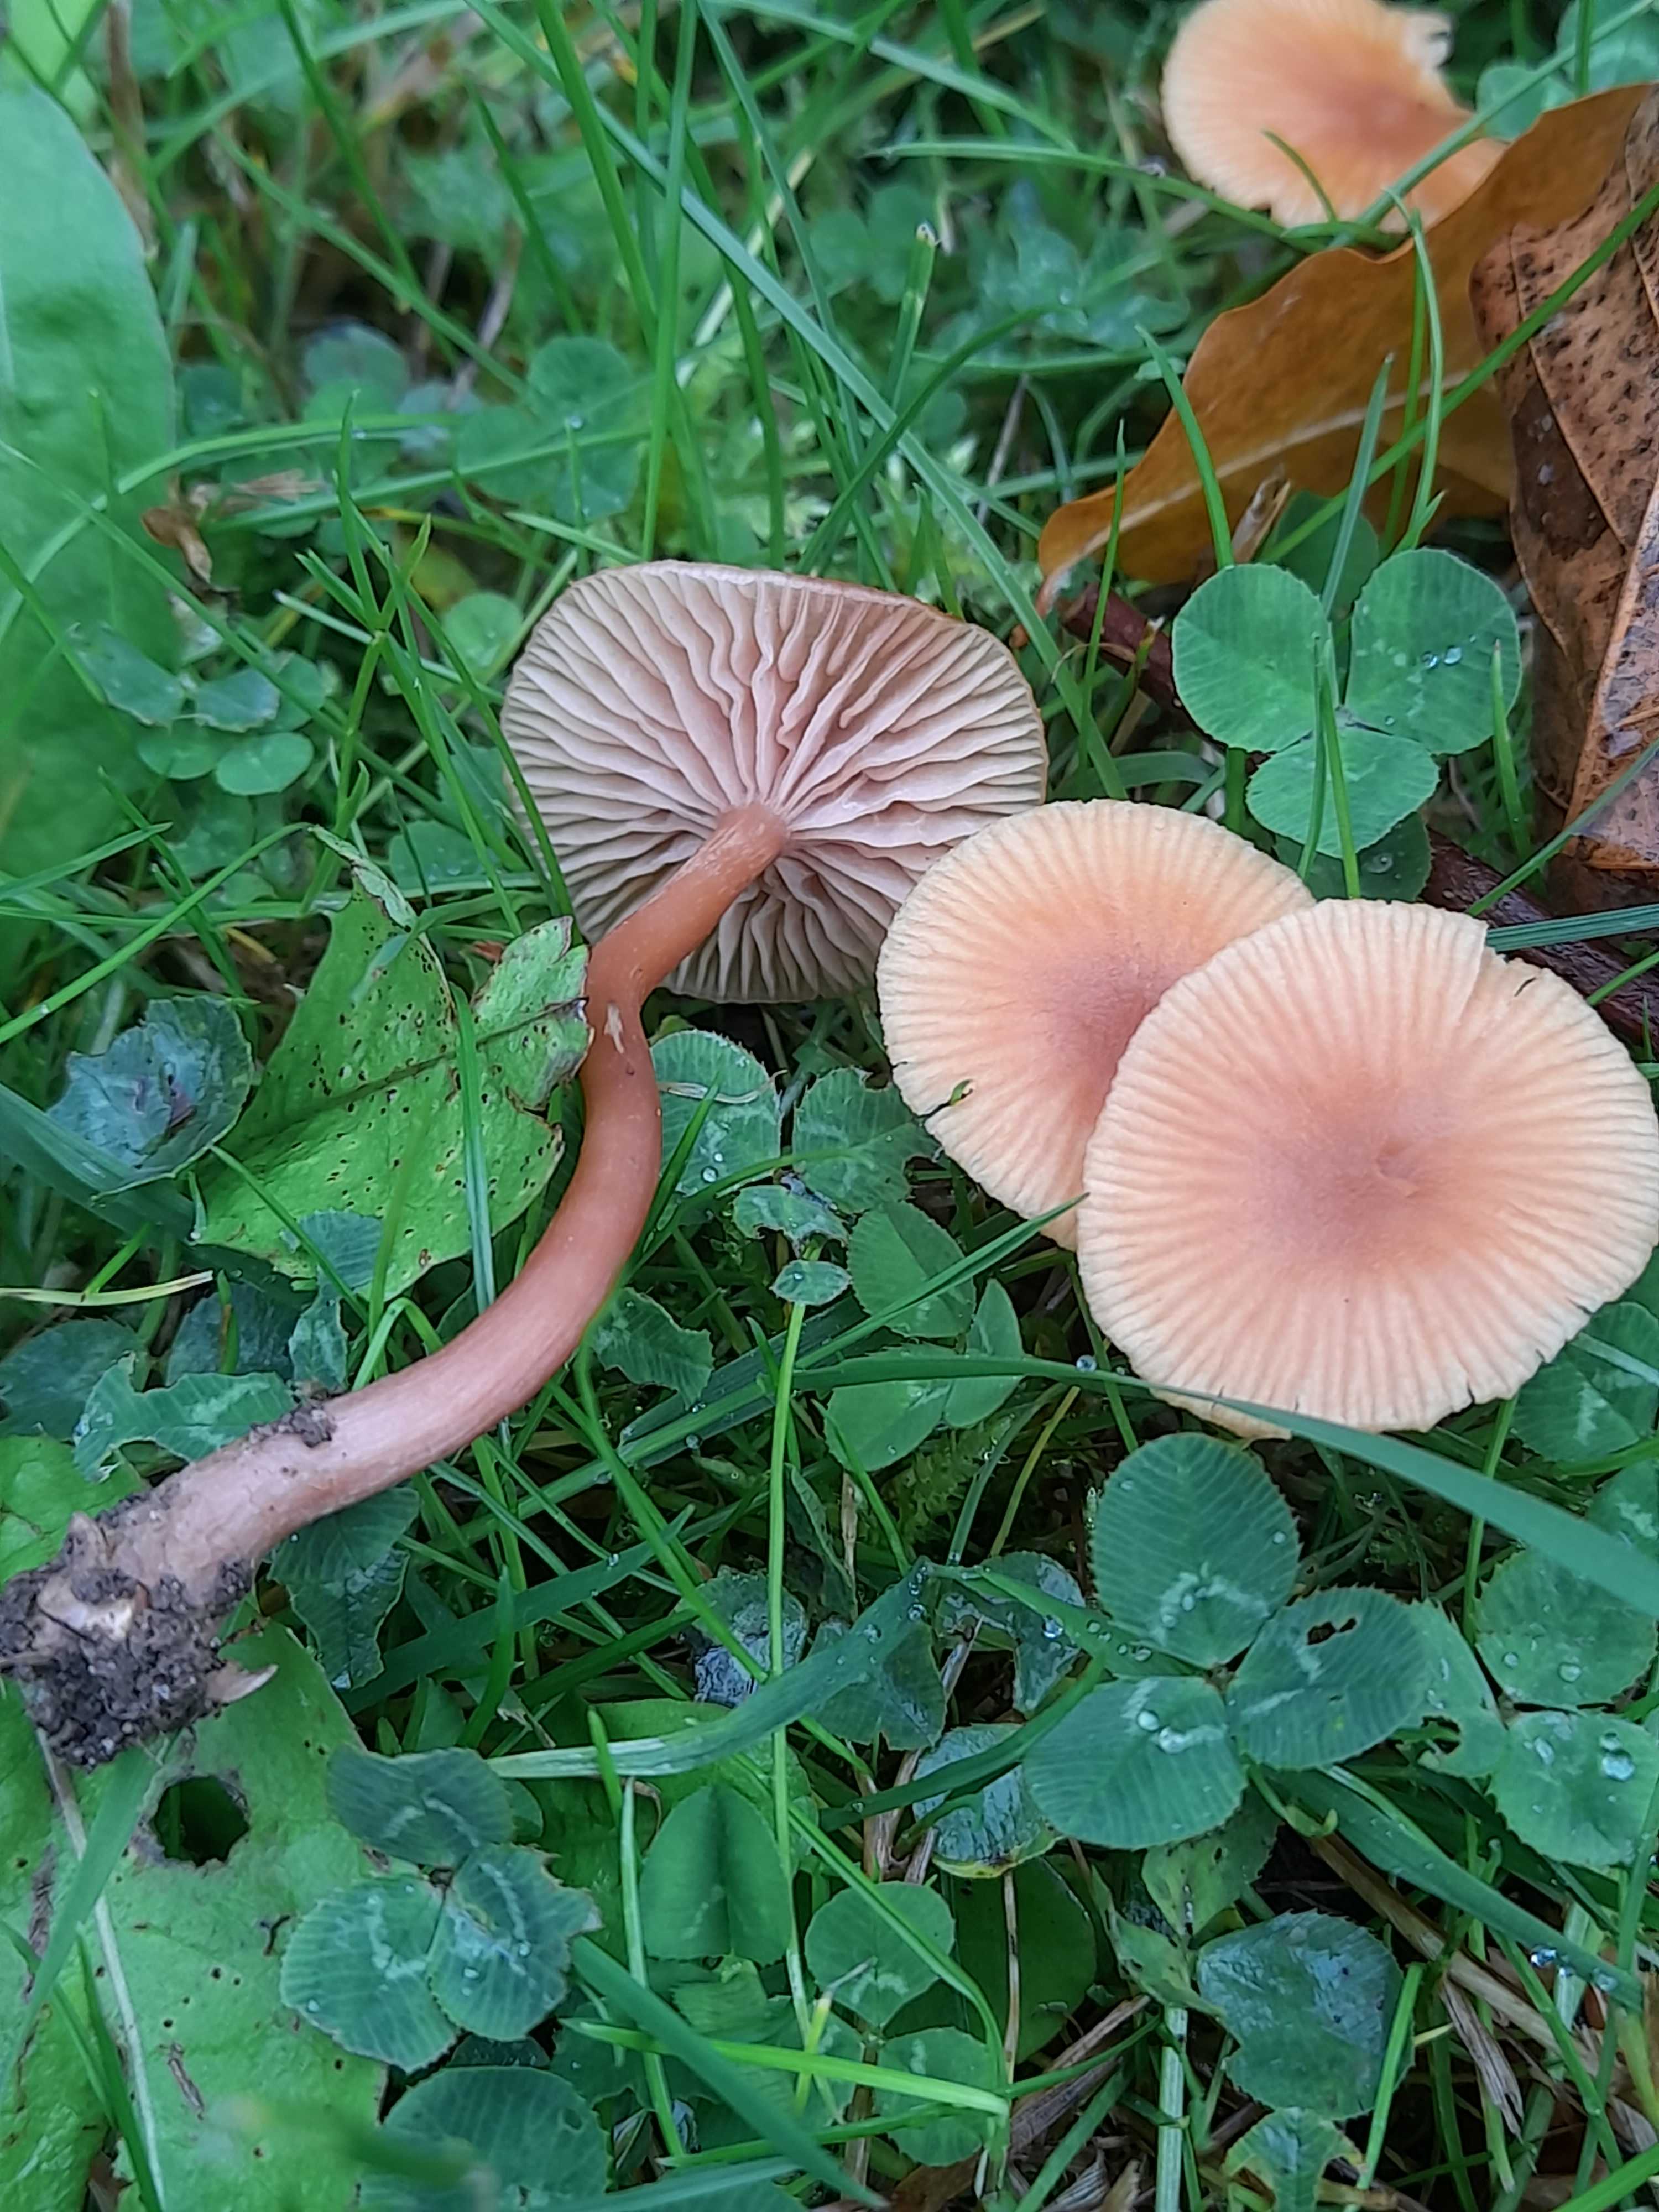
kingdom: Fungi
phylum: Basidiomycota
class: Agaricomycetes
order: Agaricales
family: Hydnangiaceae
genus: Laccaria
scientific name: Laccaria laccata
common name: rød ametysthat
